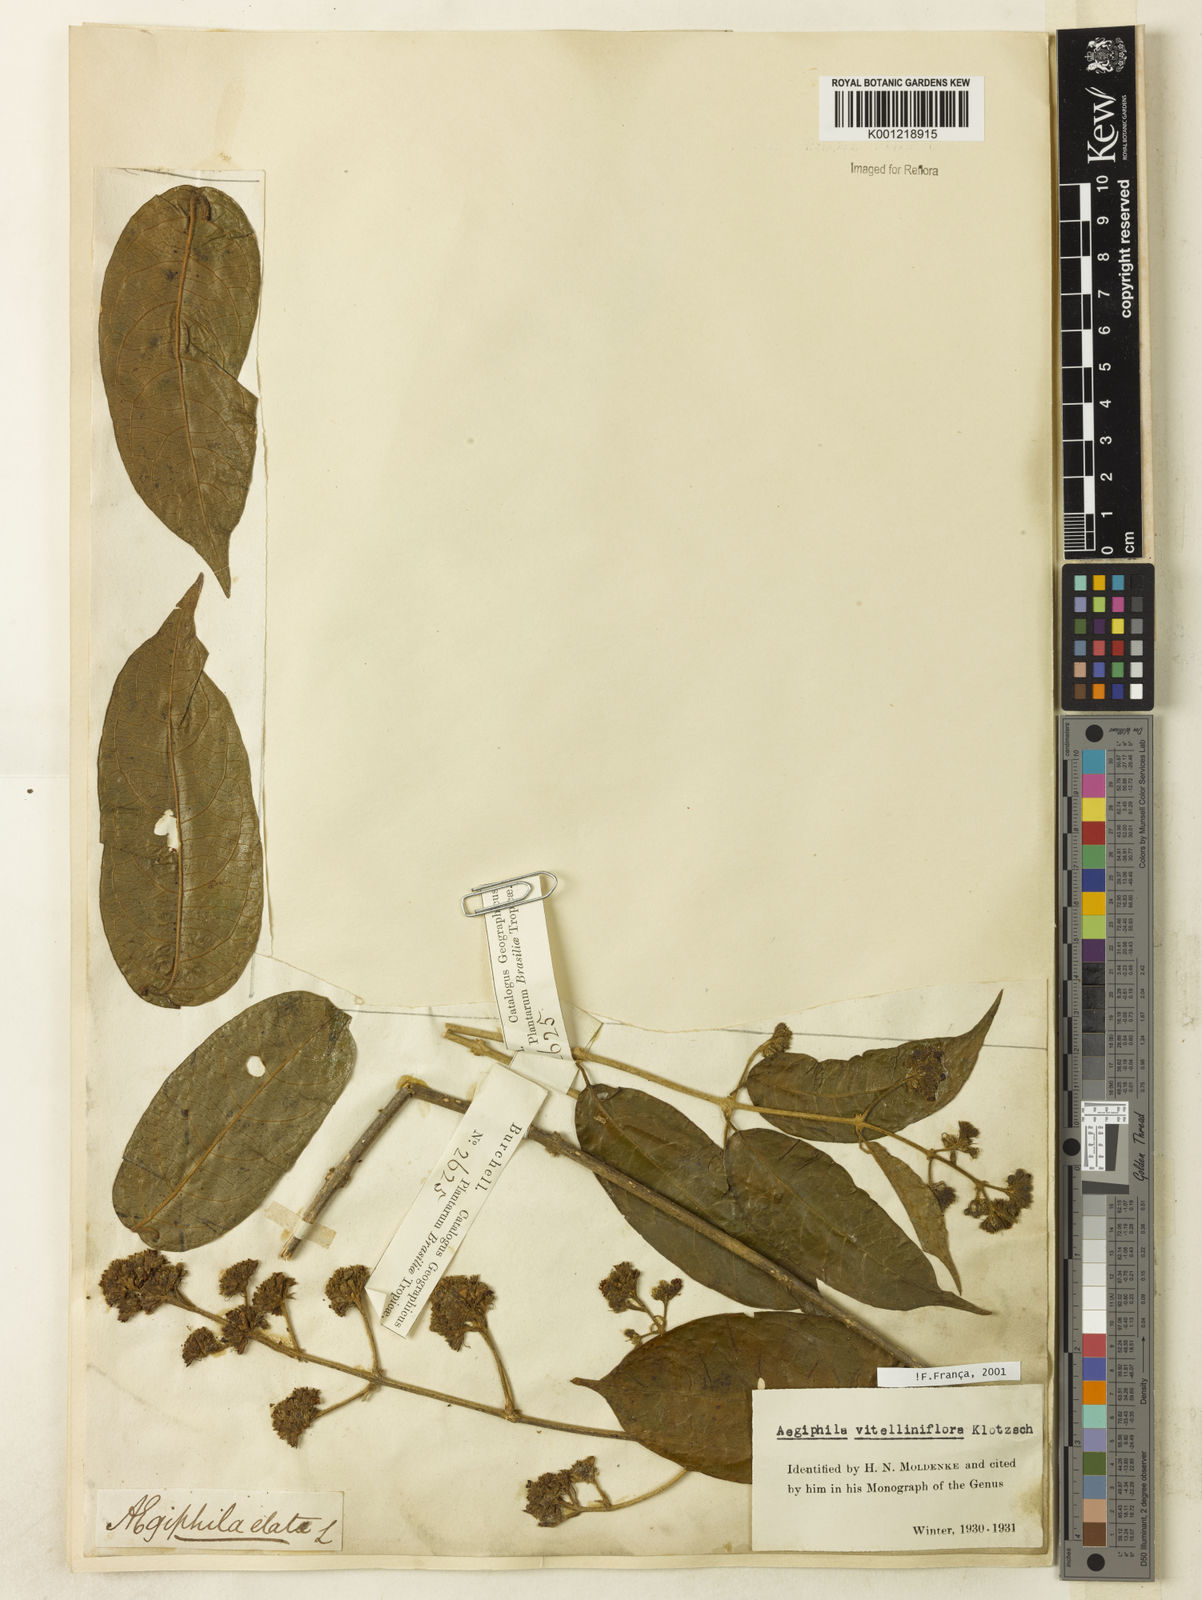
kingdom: Plantae
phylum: Tracheophyta
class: Magnoliopsida
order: Lamiales
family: Lamiaceae
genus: Aegiphila
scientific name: Aegiphila
